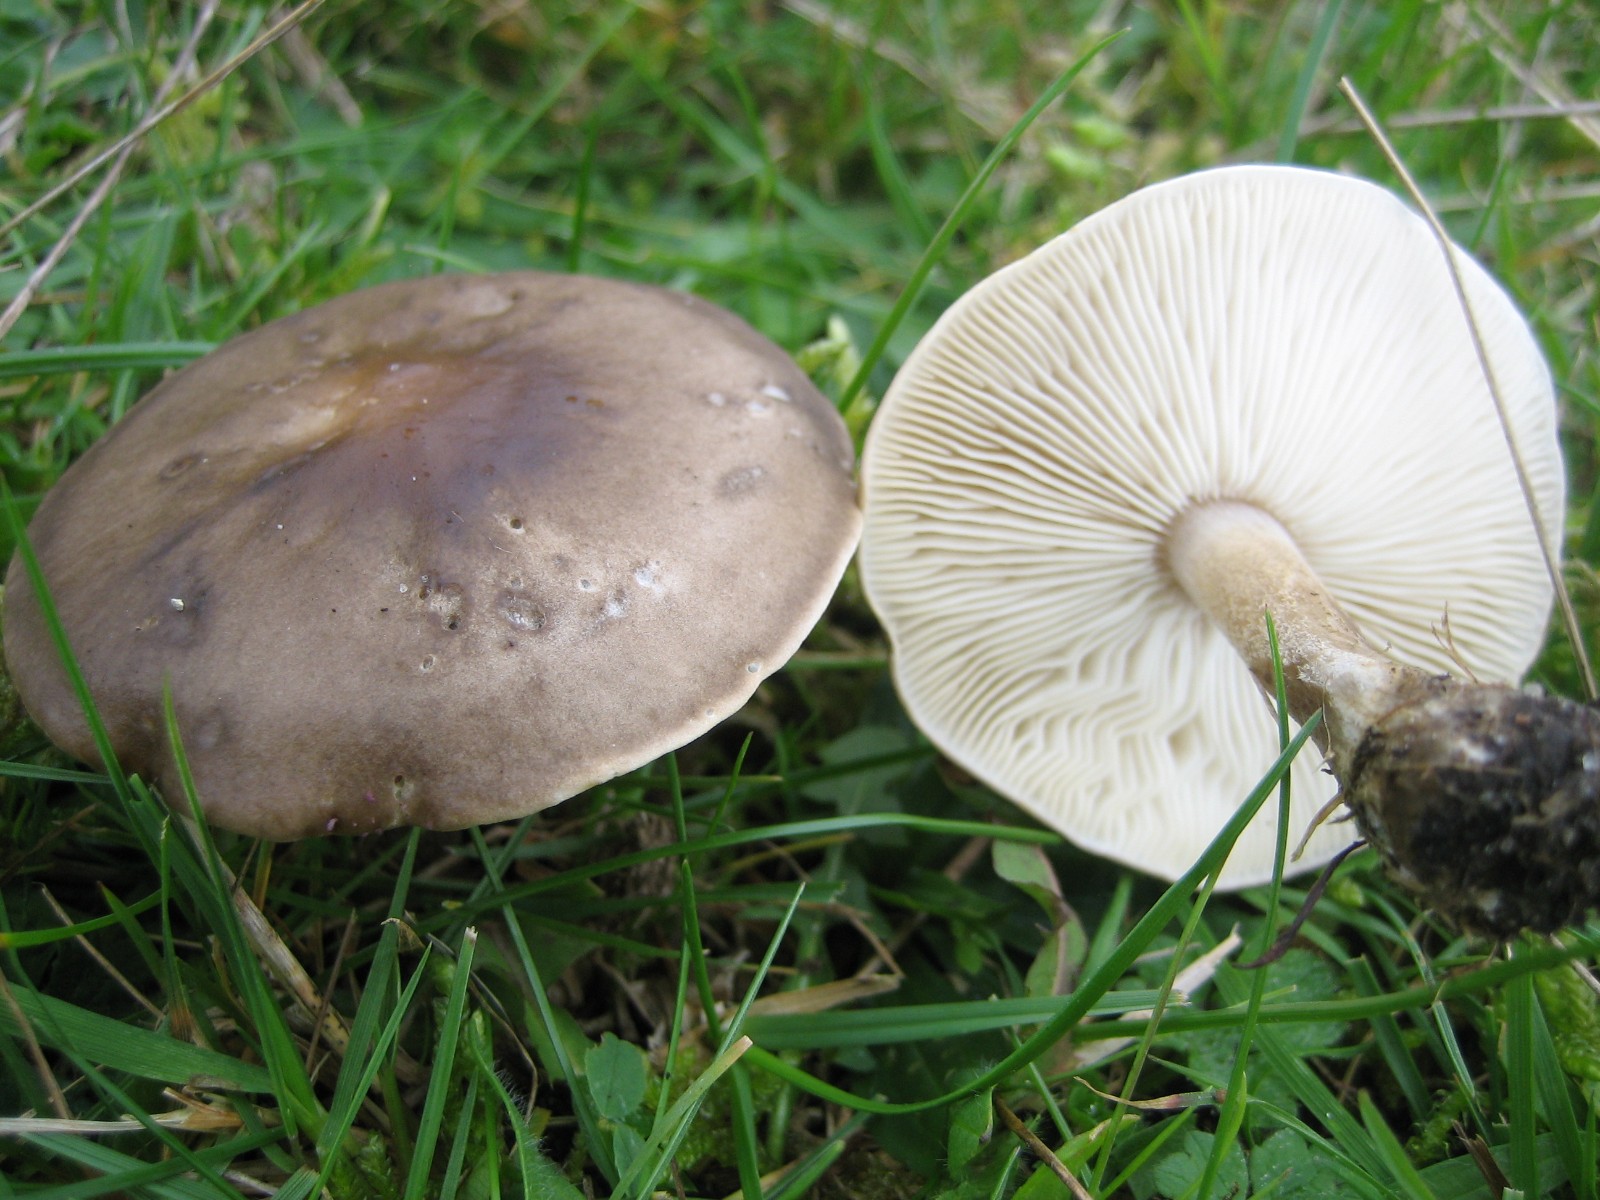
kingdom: Fungi
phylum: Basidiomycota
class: Agaricomycetes
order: Agaricales
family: Tricholomataceae
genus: Melanoleuca
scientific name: Melanoleuca
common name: munkehat
